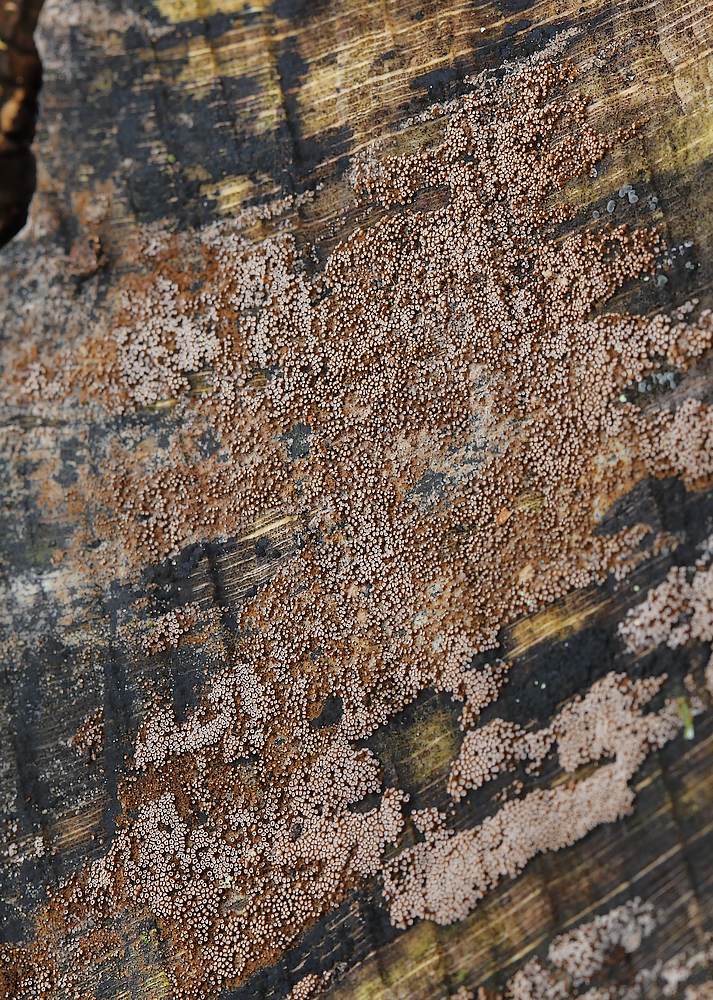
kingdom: Fungi
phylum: Basidiomycota
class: Agaricomycetes
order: Agaricales
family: Niaceae
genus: Merismodes
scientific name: Merismodes anomala
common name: almindelig læderskål
